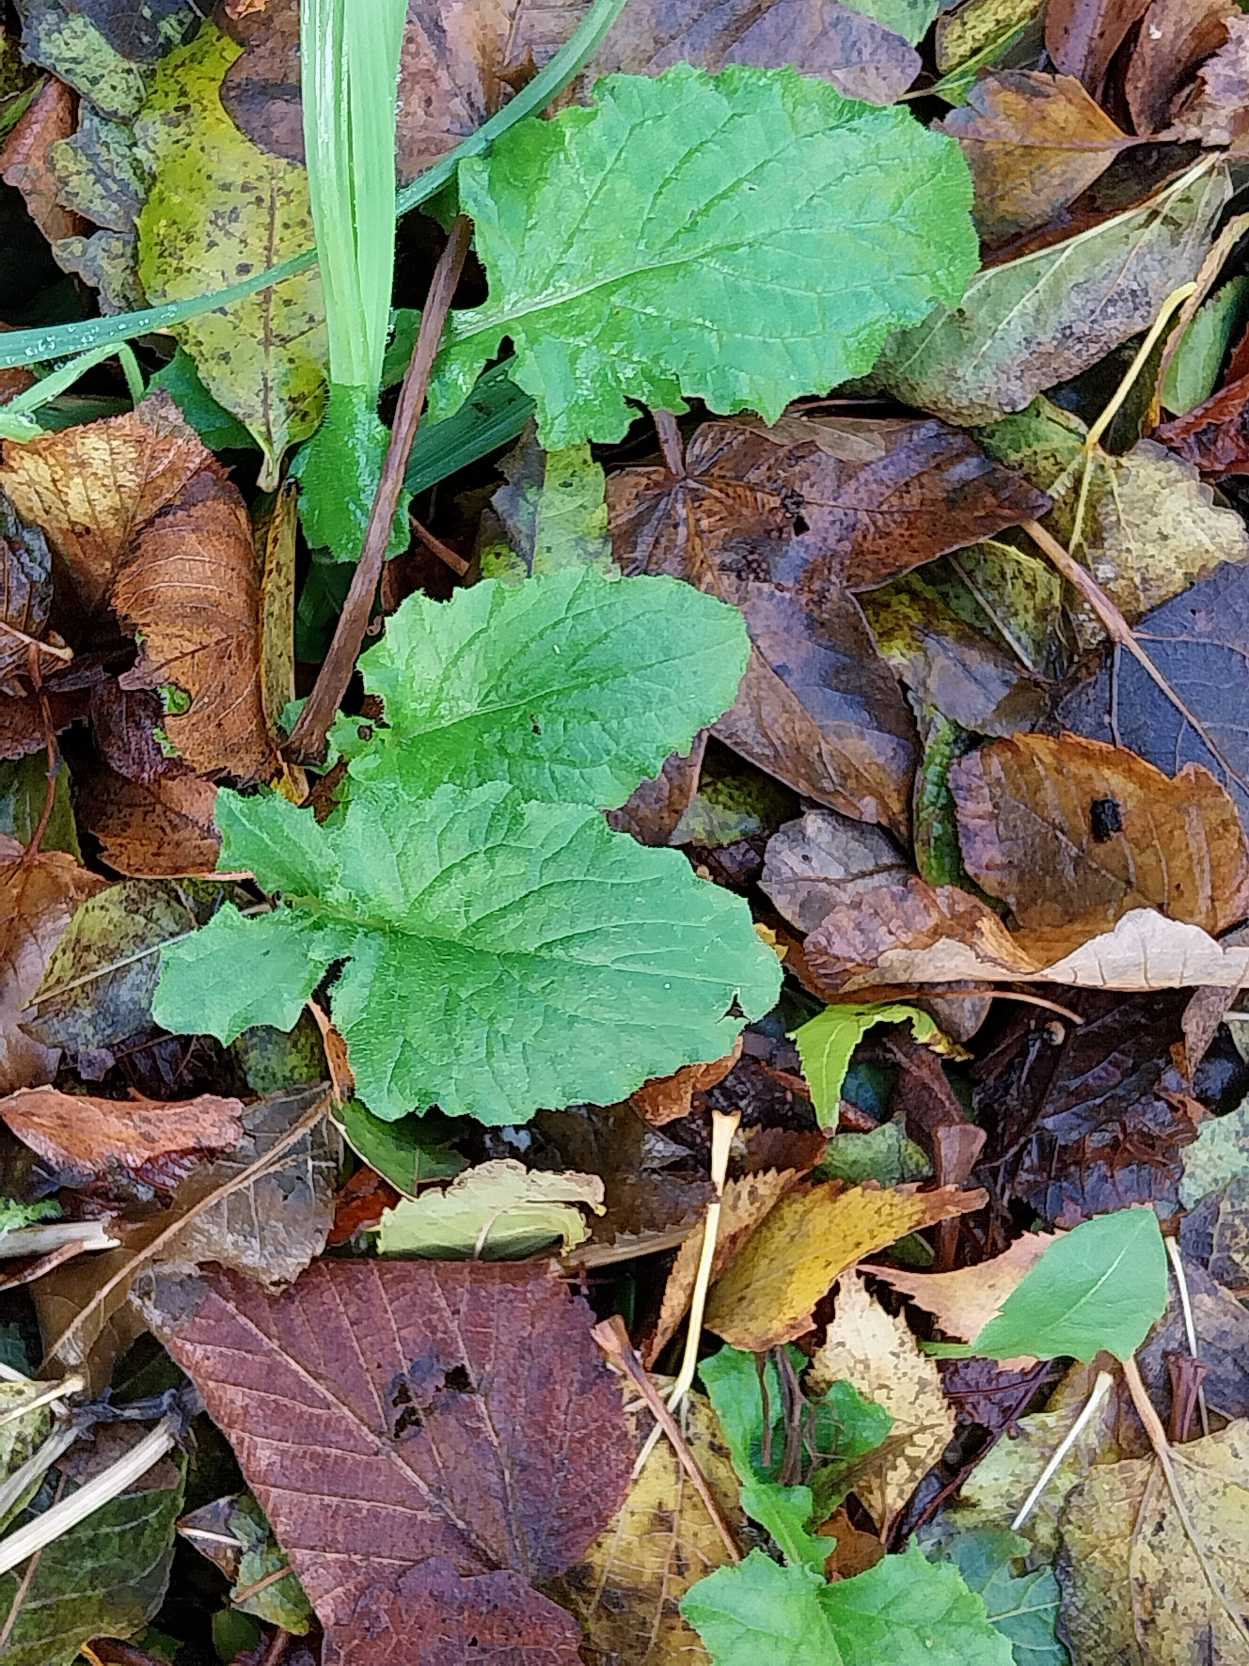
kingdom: Plantae
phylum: Tracheophyta
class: Magnoliopsida
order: Asterales
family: Asteraceae
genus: Lapsana
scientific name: Lapsana communis
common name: Haremad
